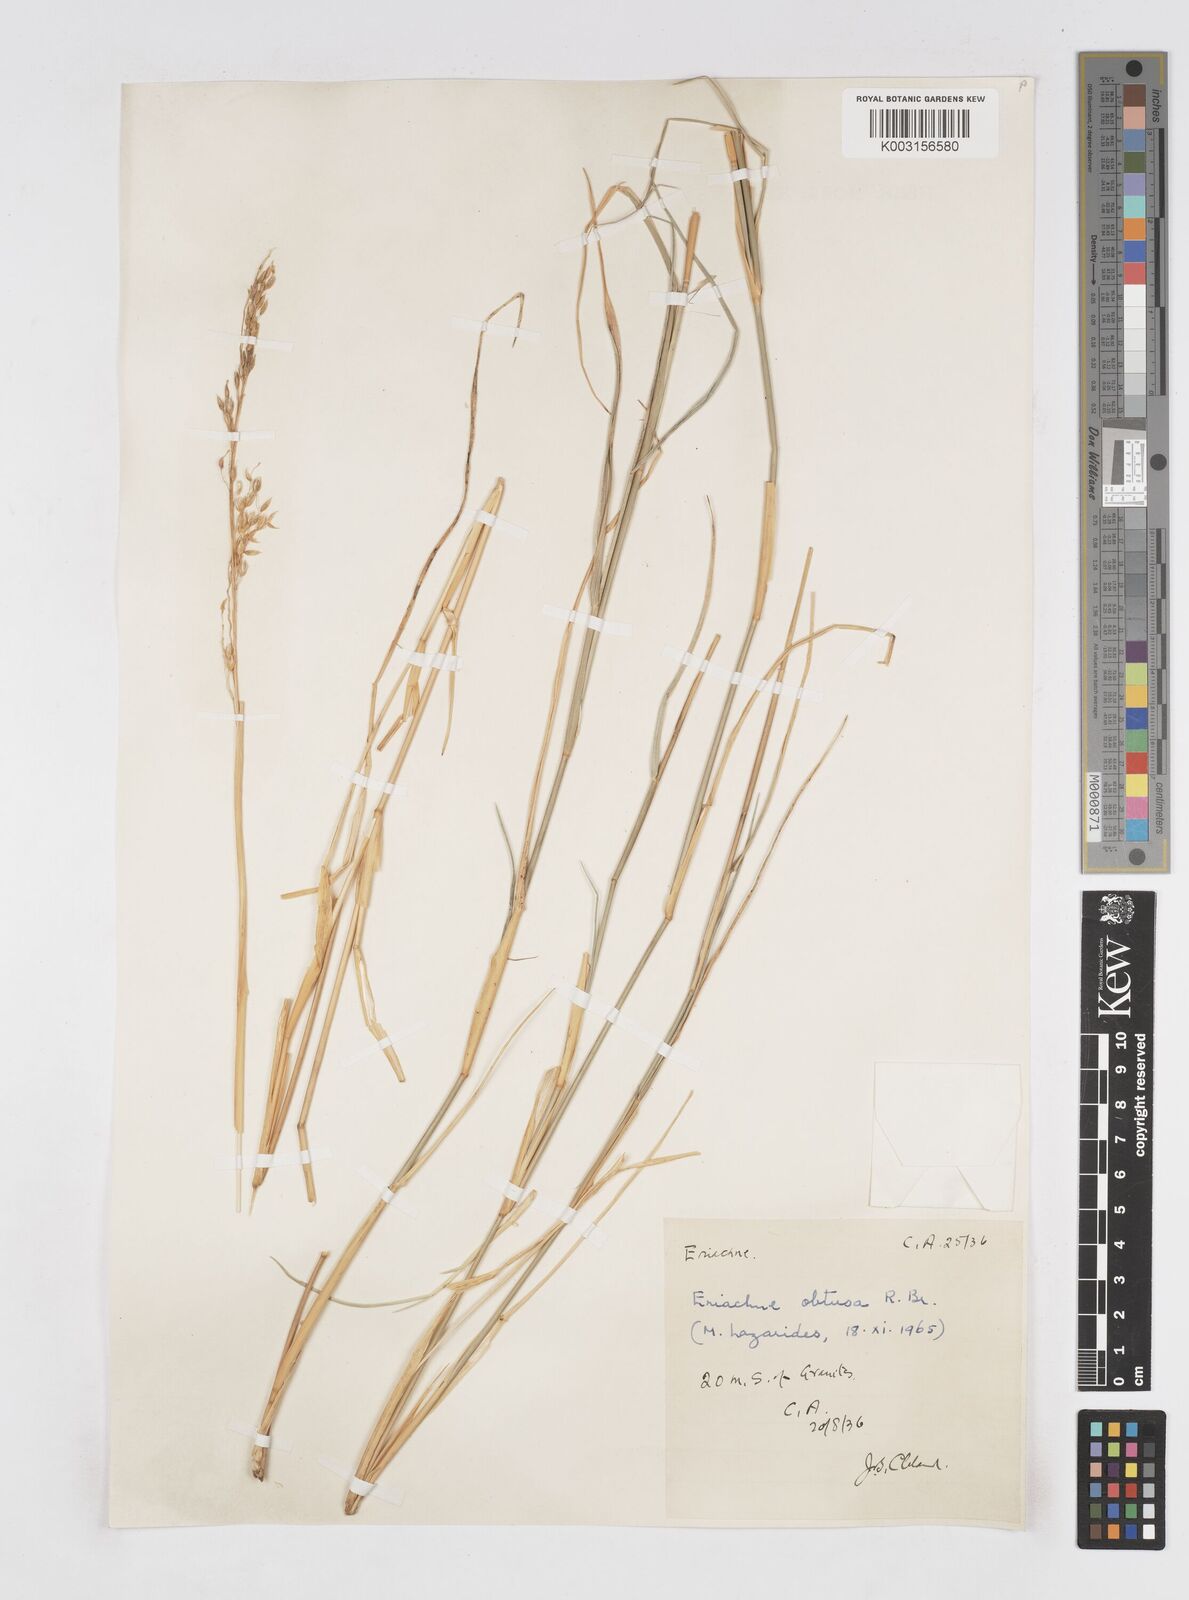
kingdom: Plantae
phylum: Tracheophyta
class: Liliopsida
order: Poales
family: Poaceae
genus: Eriachne
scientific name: Eriachne obtusa
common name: Northern wanderrie grass
